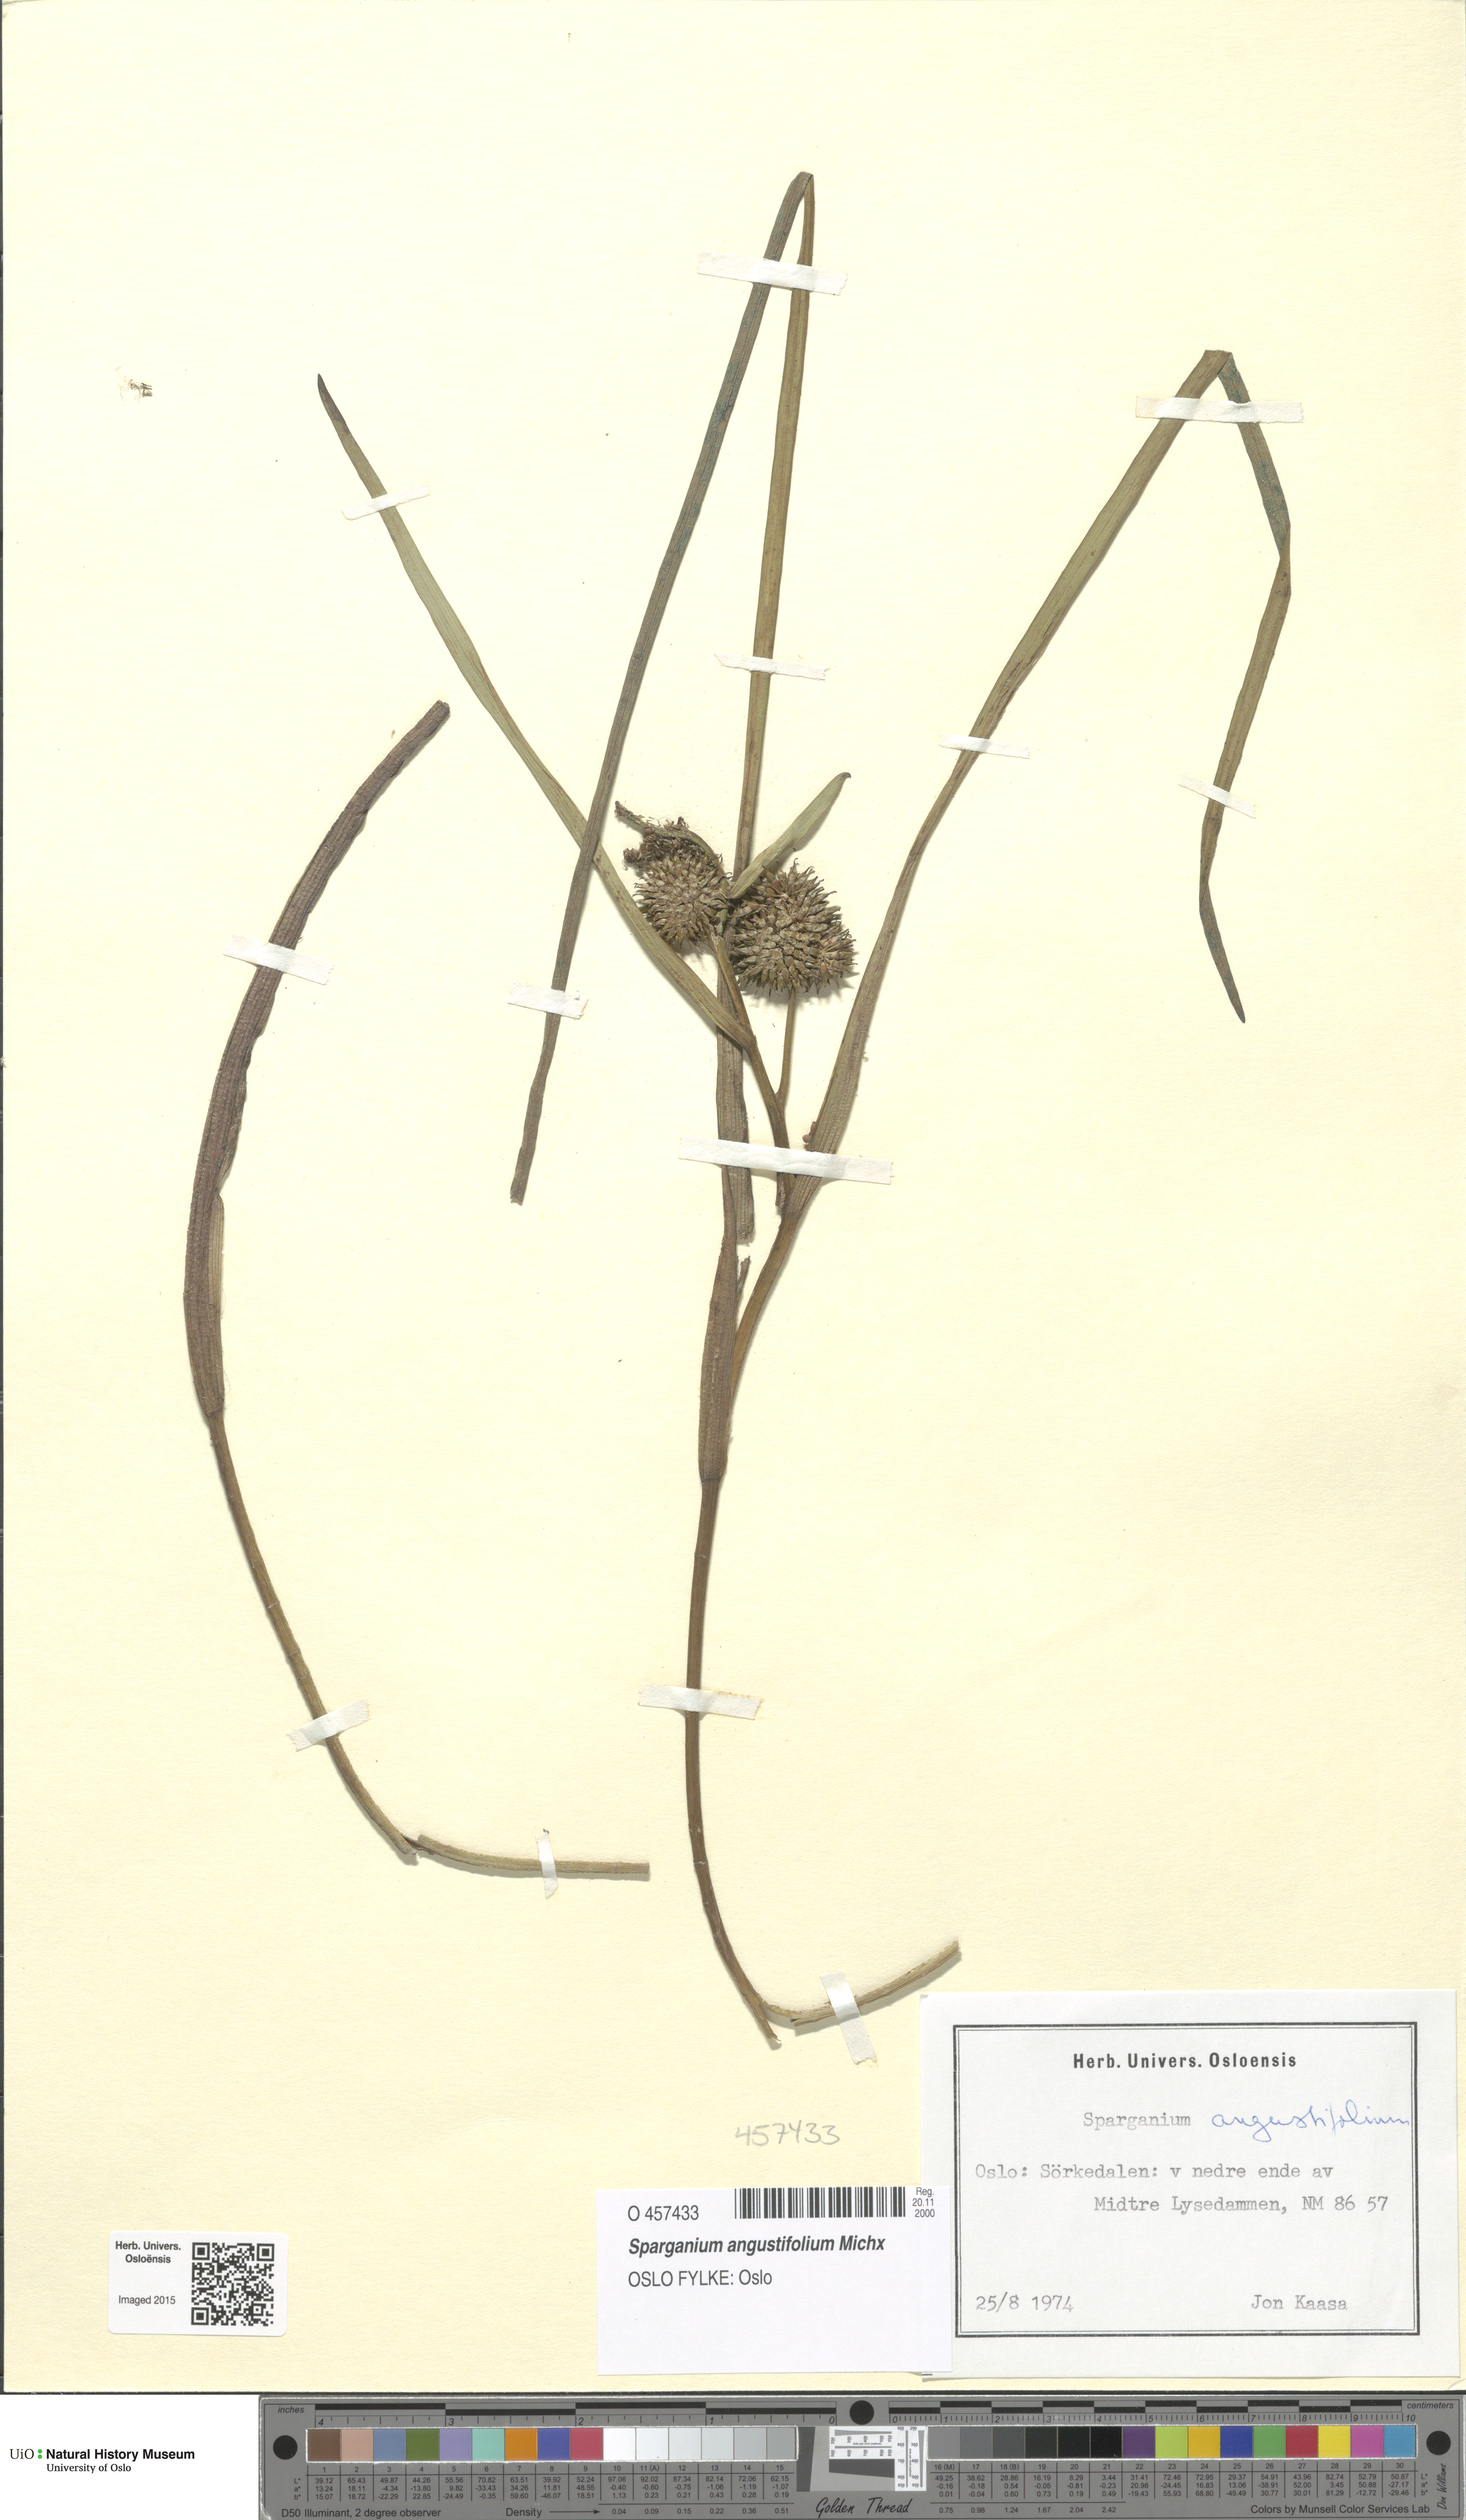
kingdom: Plantae
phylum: Tracheophyta
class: Liliopsida
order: Poales
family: Typhaceae
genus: Sparganium
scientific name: Sparganium angustifolium
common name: Floating bur-reed
